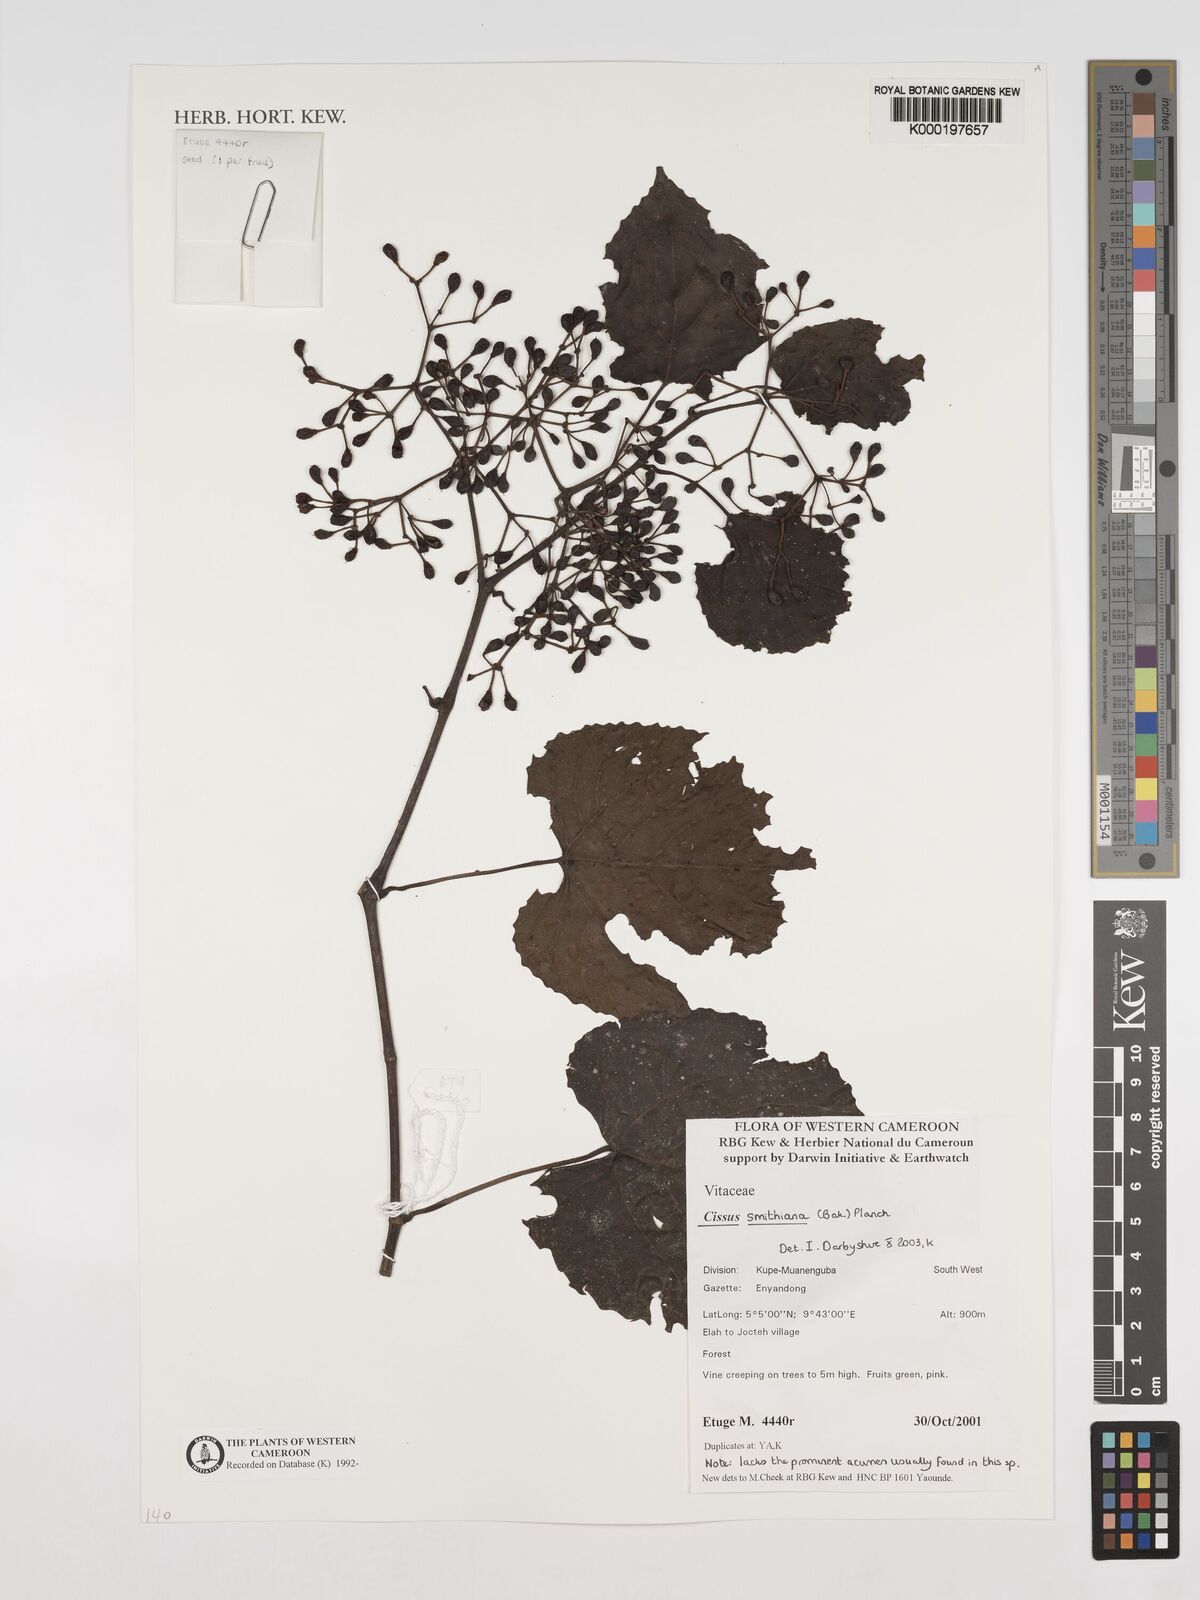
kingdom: Plantae
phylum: Tracheophyta
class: Magnoliopsida
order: Vitales
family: Vitaceae
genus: Cissus
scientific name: Cissus glaucophylla
